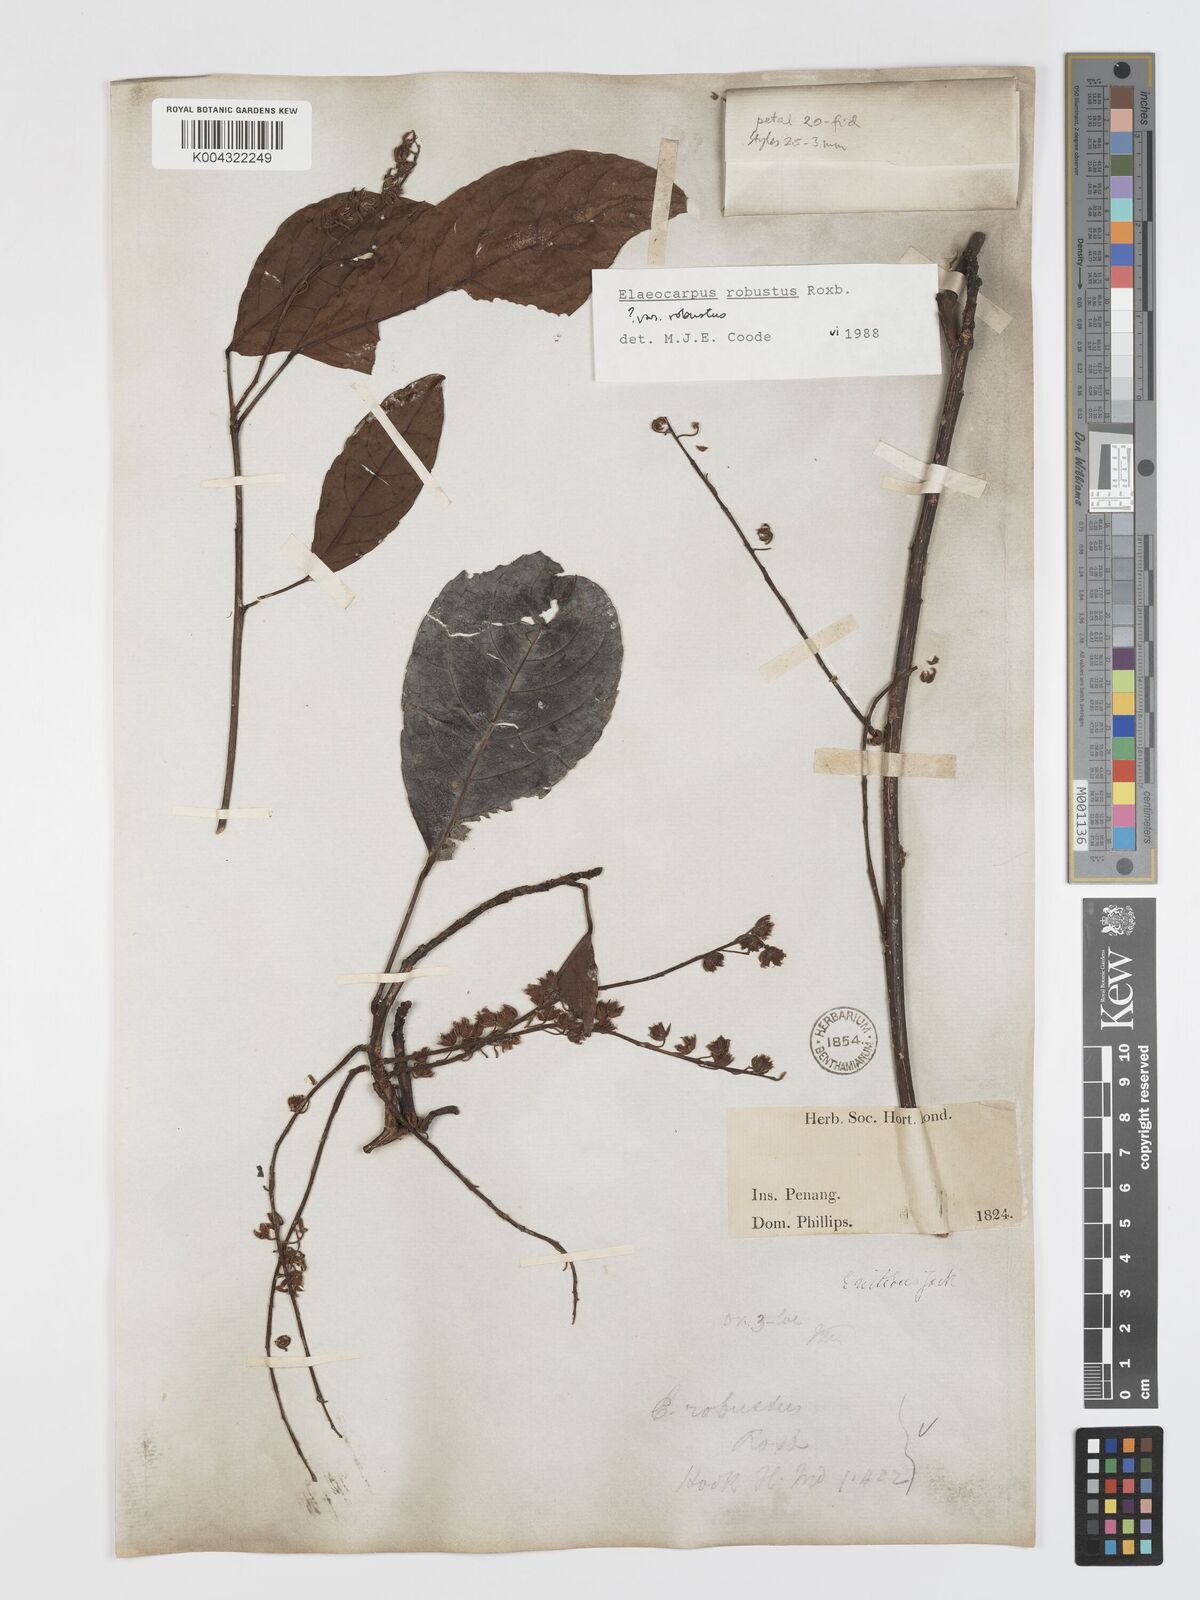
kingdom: Plantae
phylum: Tracheophyta
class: Magnoliopsida
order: Oxalidales
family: Elaeocarpaceae
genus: Elaeocarpus
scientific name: Elaeocarpus robustus
